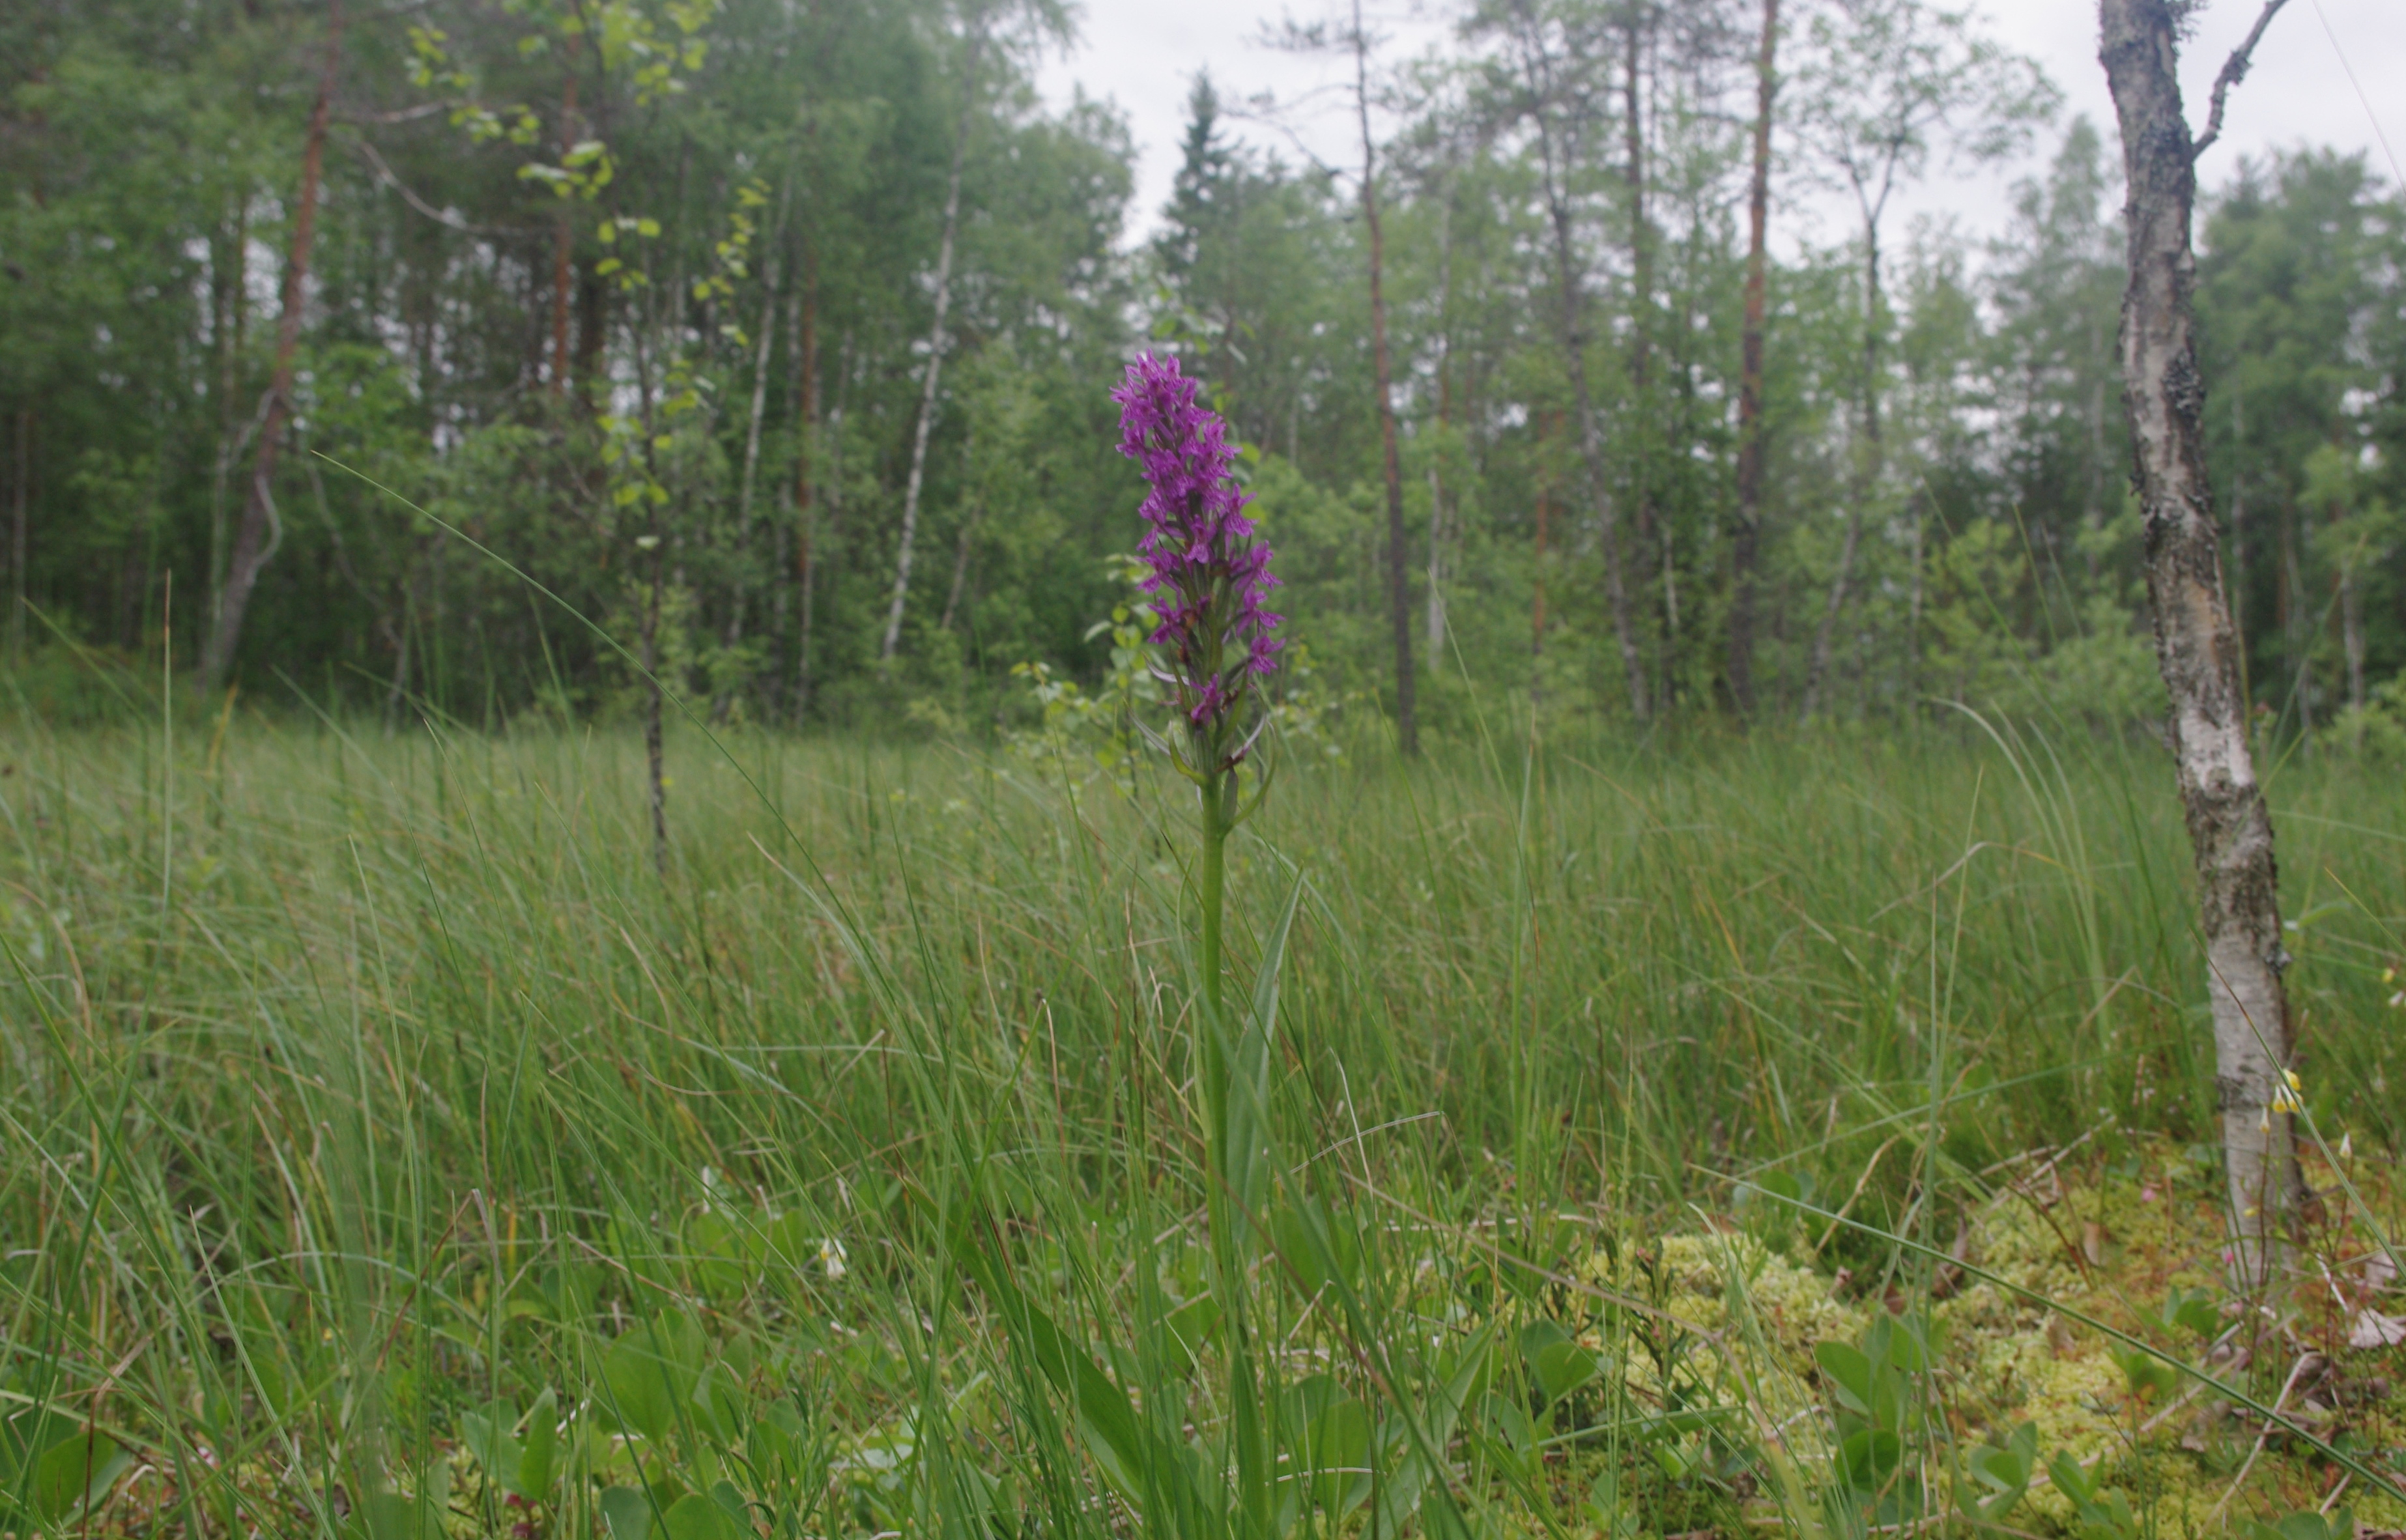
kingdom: Plantae
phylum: Tracheophyta
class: Liliopsida
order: Asparagales
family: Orchidaceae
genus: Dactylorhiza
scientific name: Dactylorhiza incarnata
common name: Early marsh-orchid
